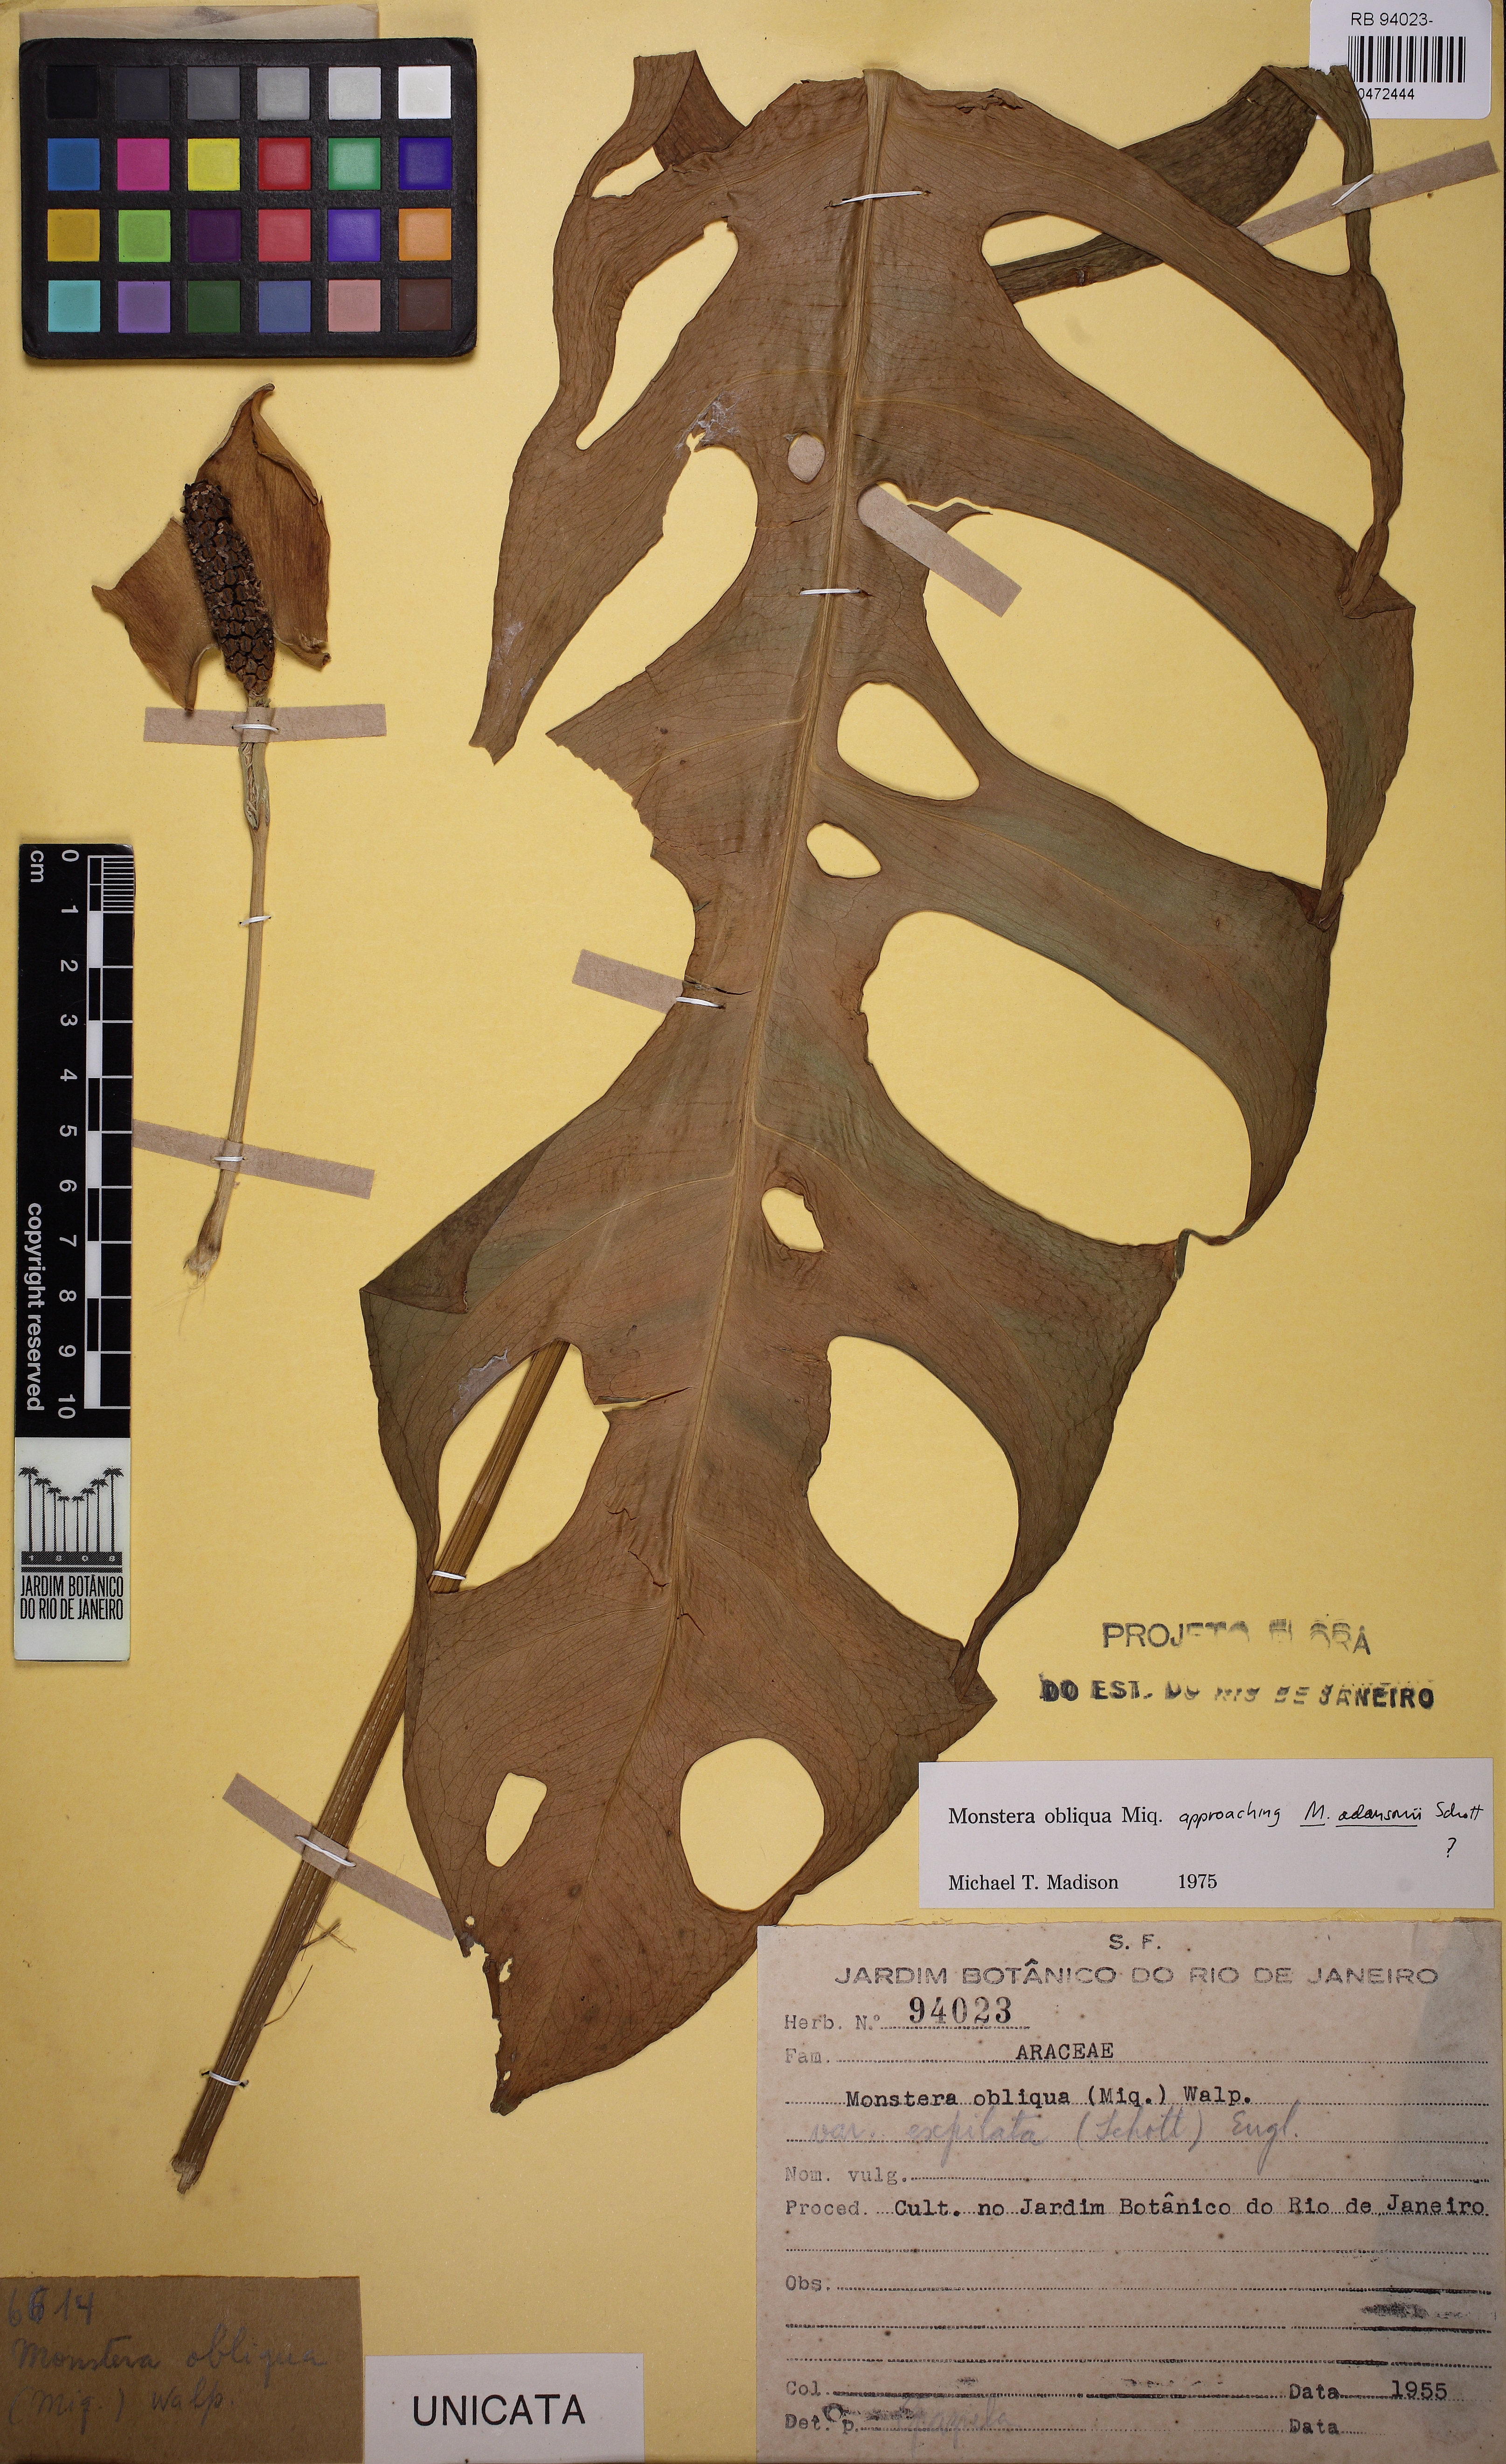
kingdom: Plantae
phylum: Tracheophyta
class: Liliopsida
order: Alismatales
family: Araceae
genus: Monstera
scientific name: Monstera obliqua
